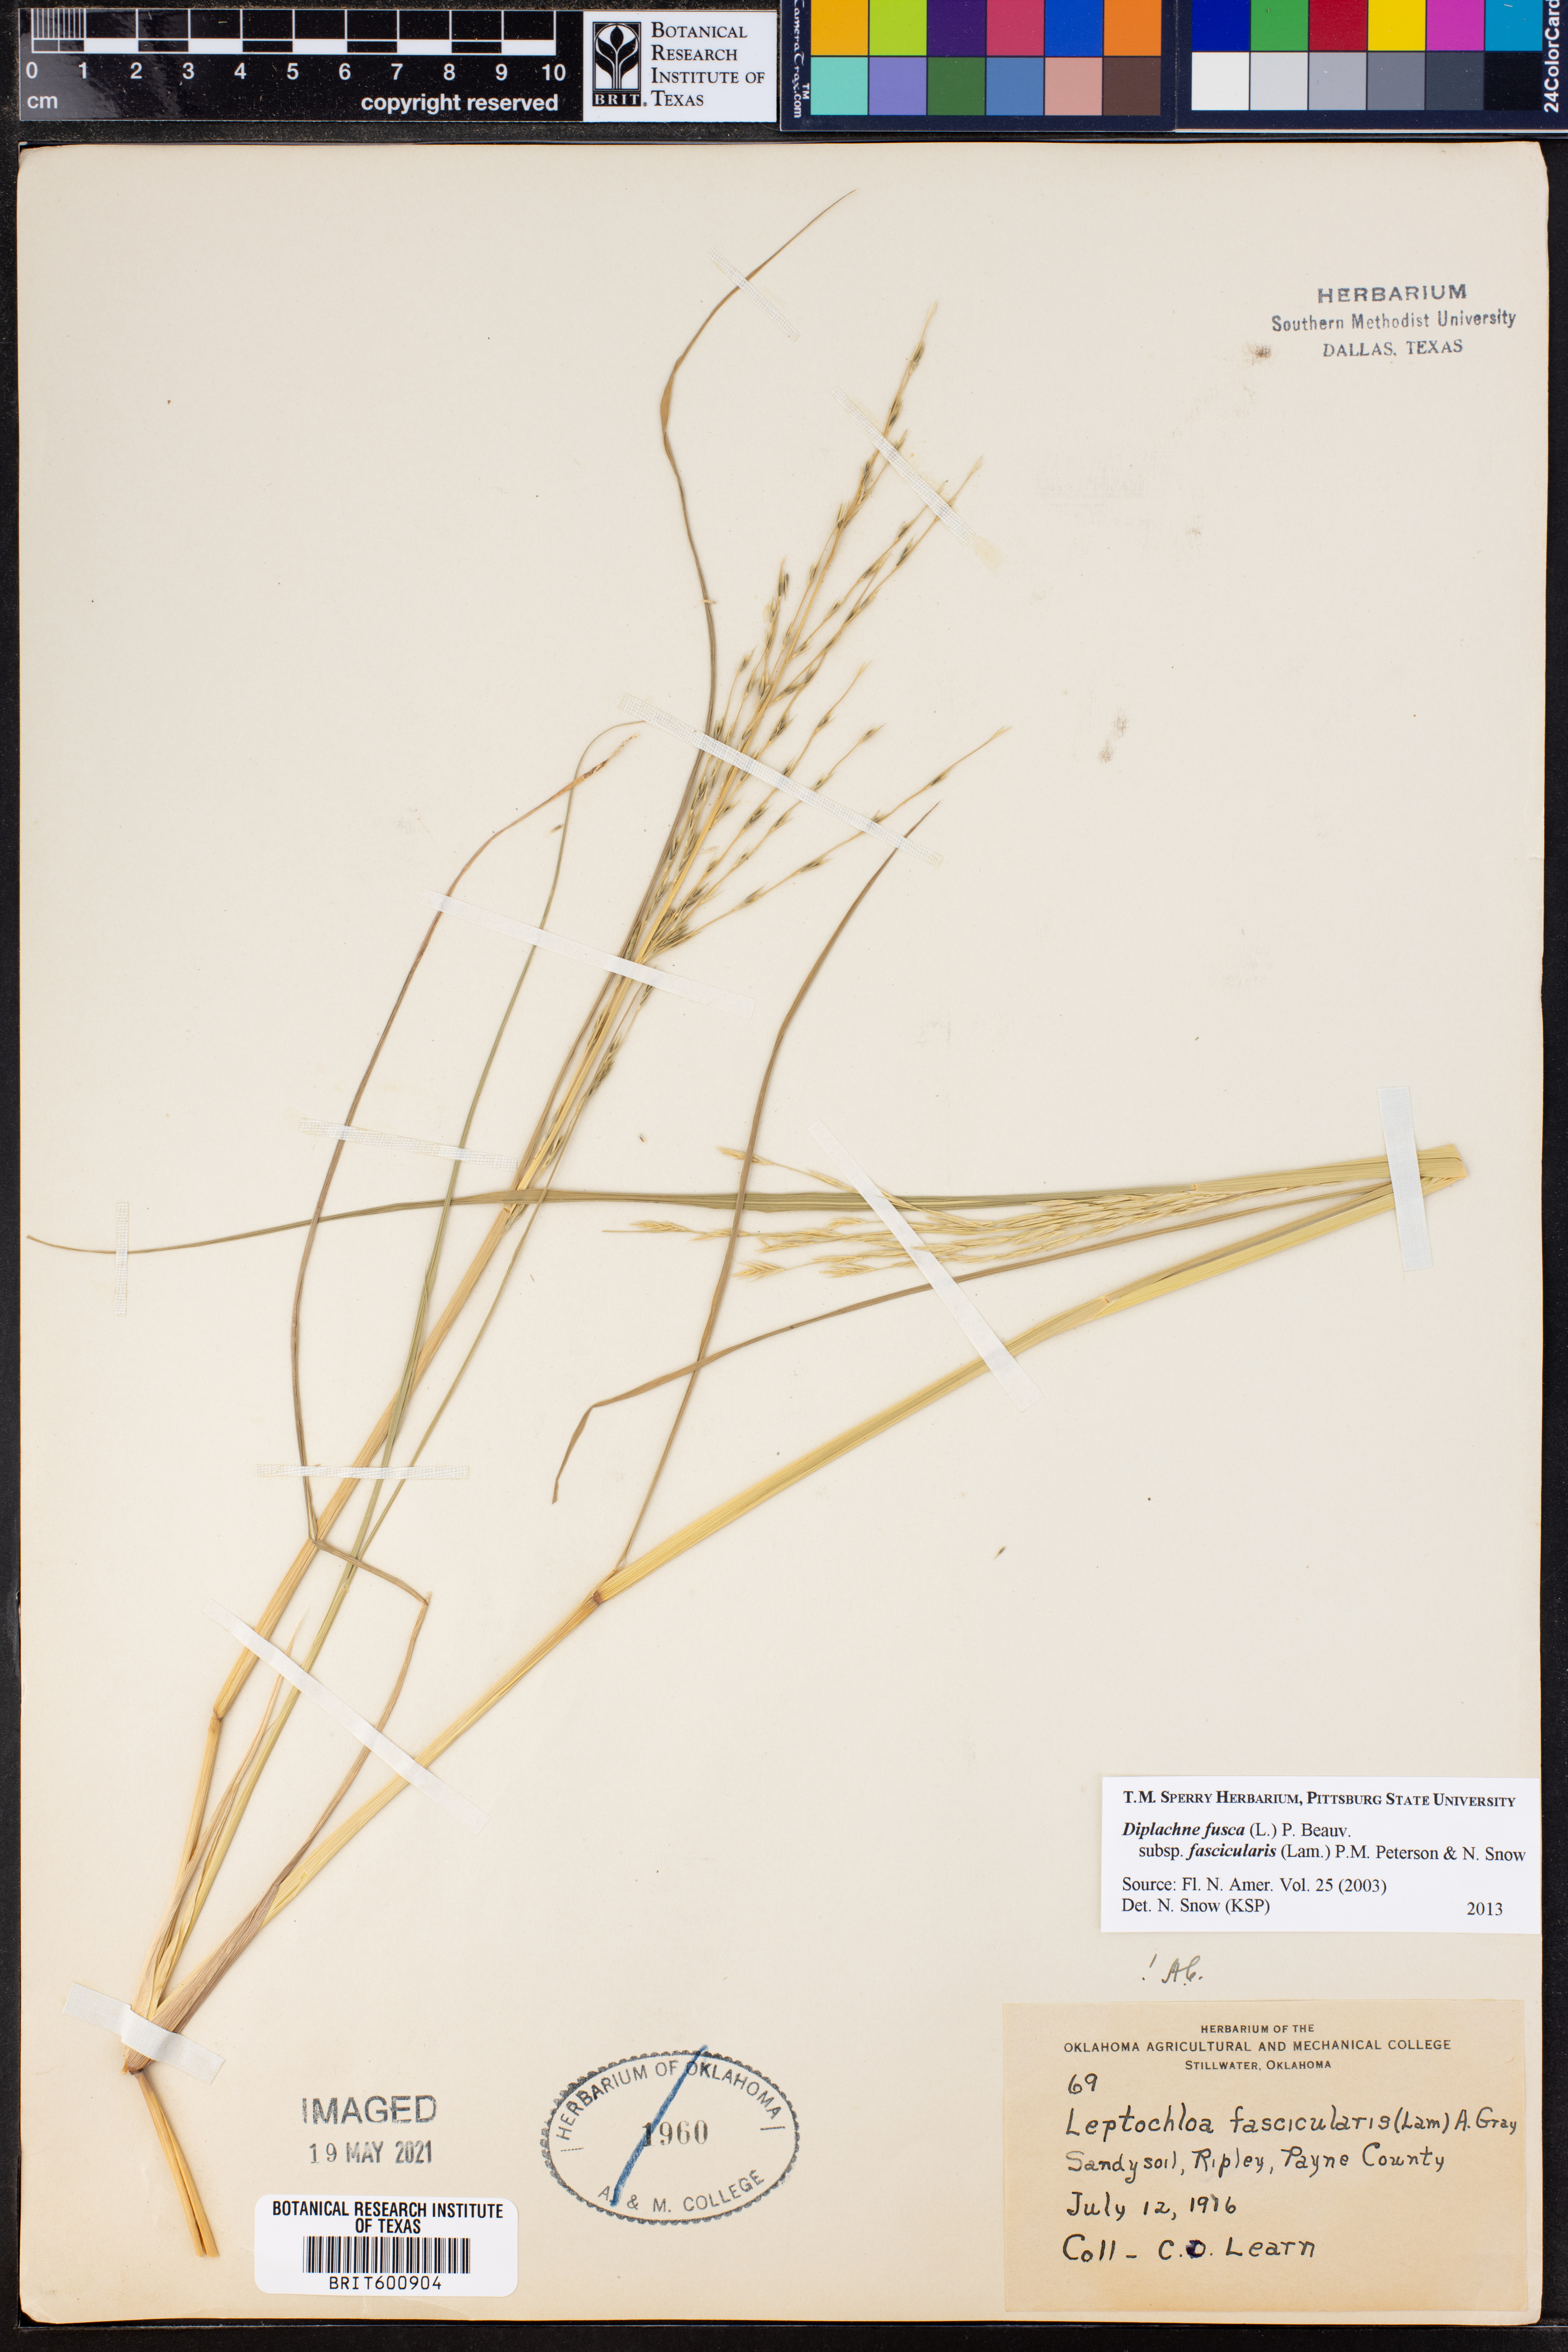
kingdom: Plantae
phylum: Tracheophyta
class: Liliopsida
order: Poales
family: Poaceae
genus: Diplachne
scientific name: Diplachne fusca
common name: Brown beetle grass
